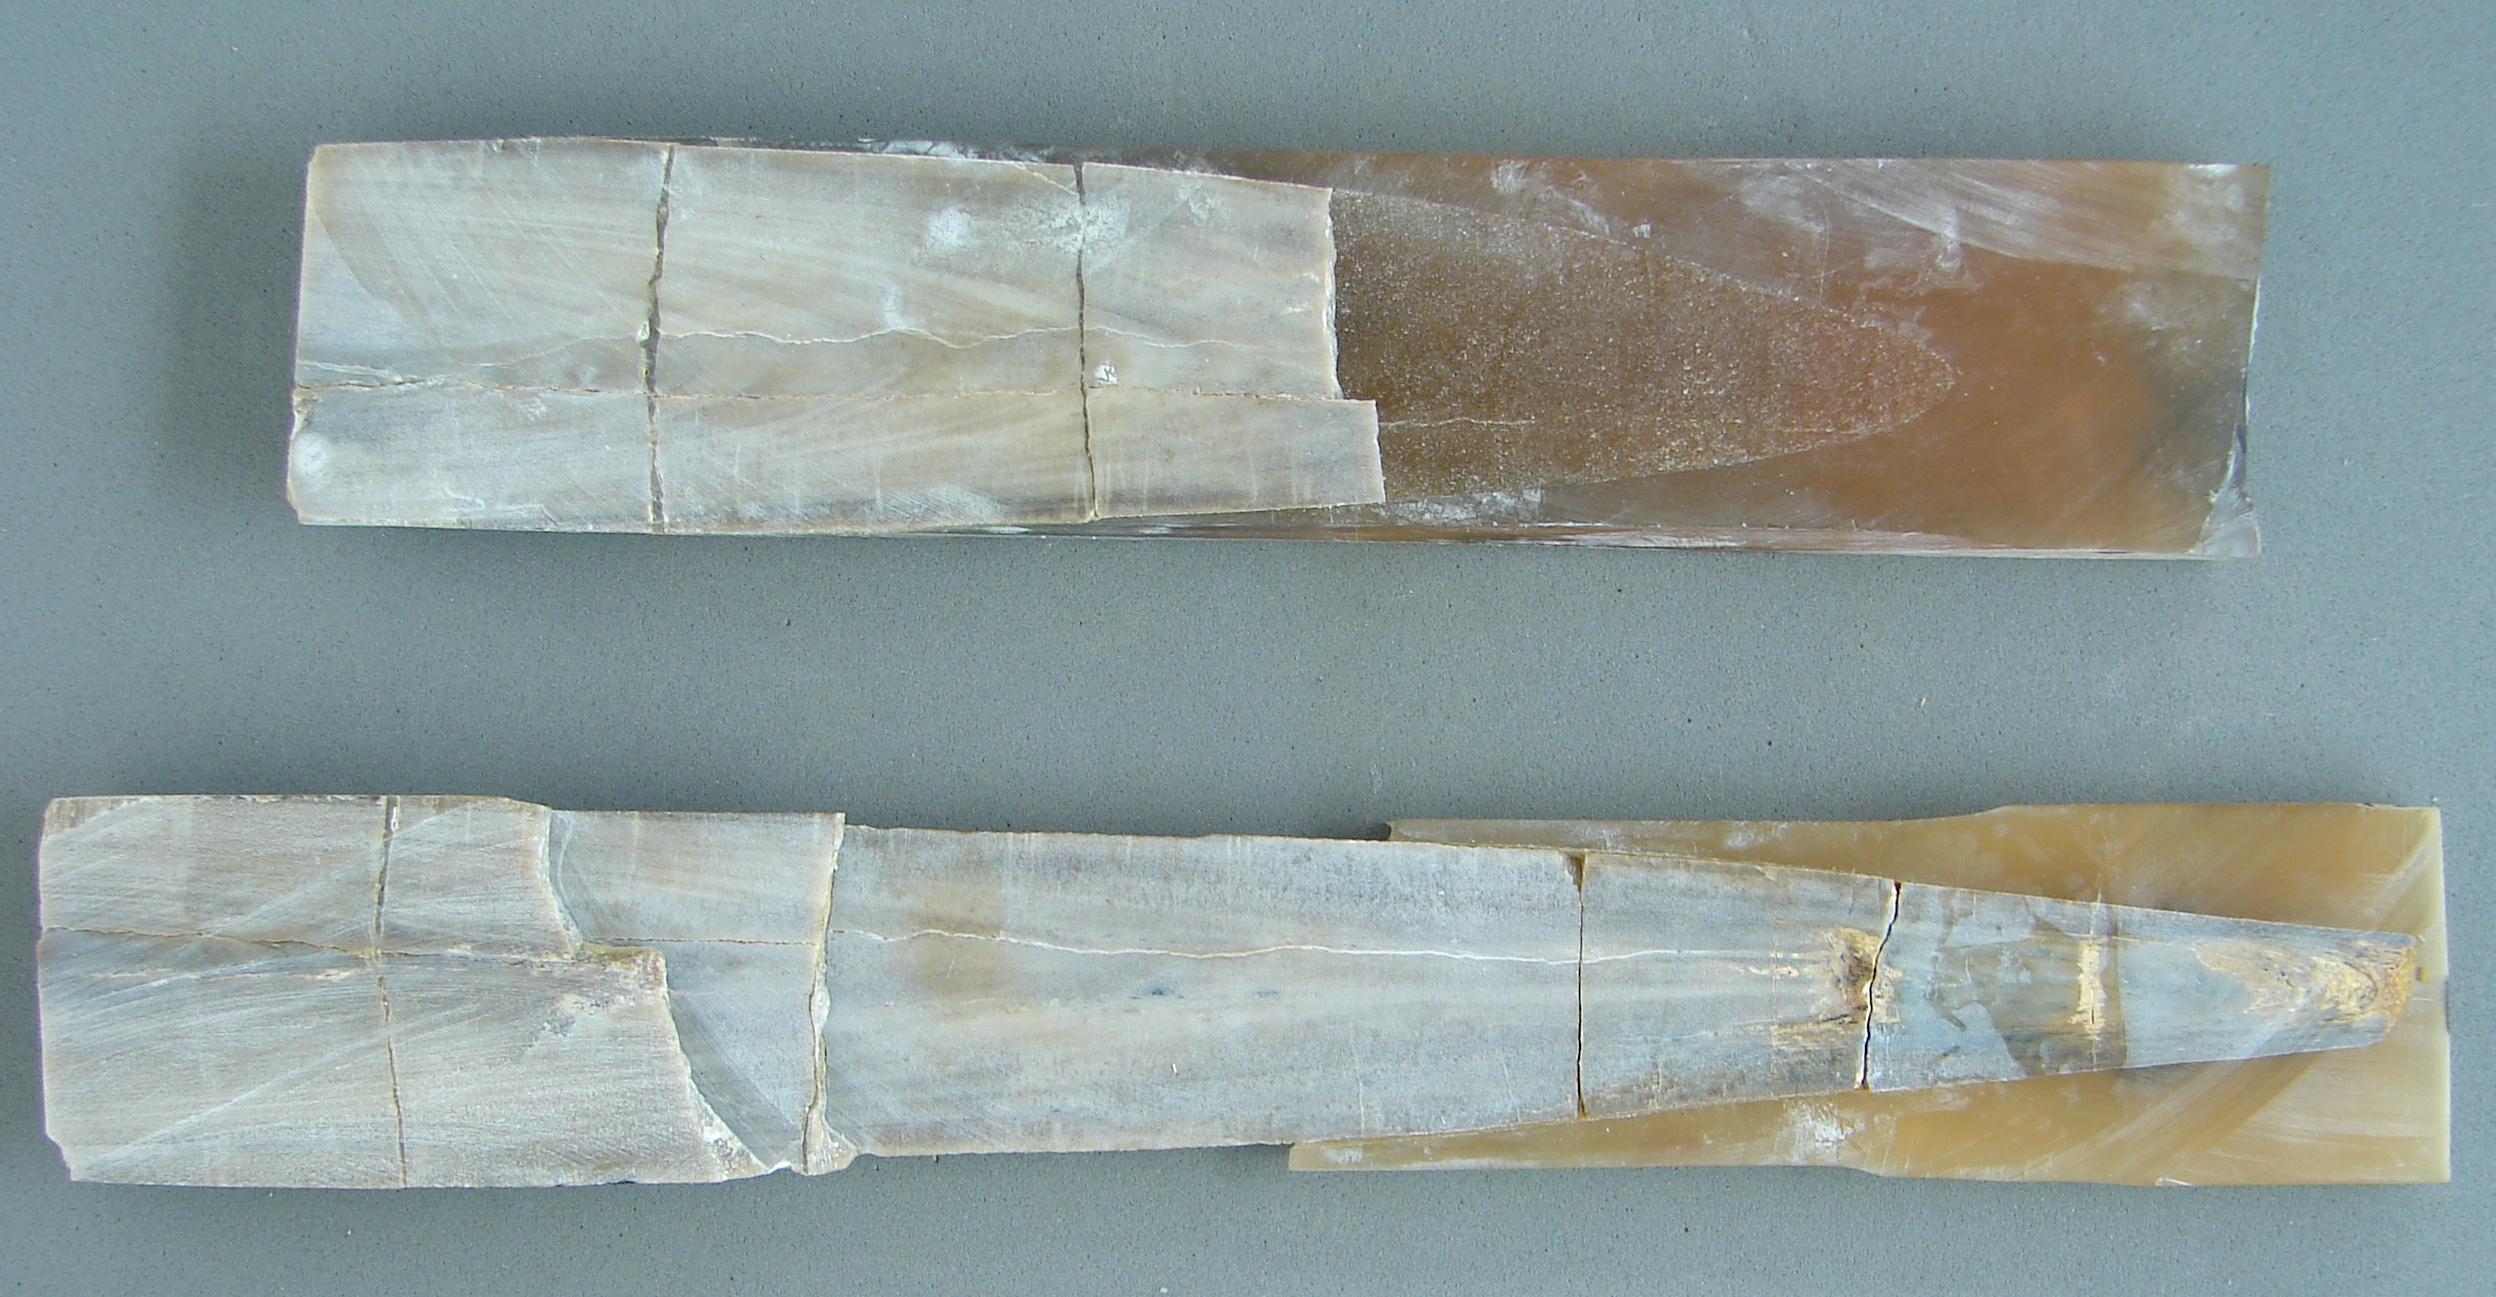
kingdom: Animalia
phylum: Mollusca
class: Cephalopoda
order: Belemnitida
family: Megateuthididae
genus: Megateuthis
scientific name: Megateuthis
